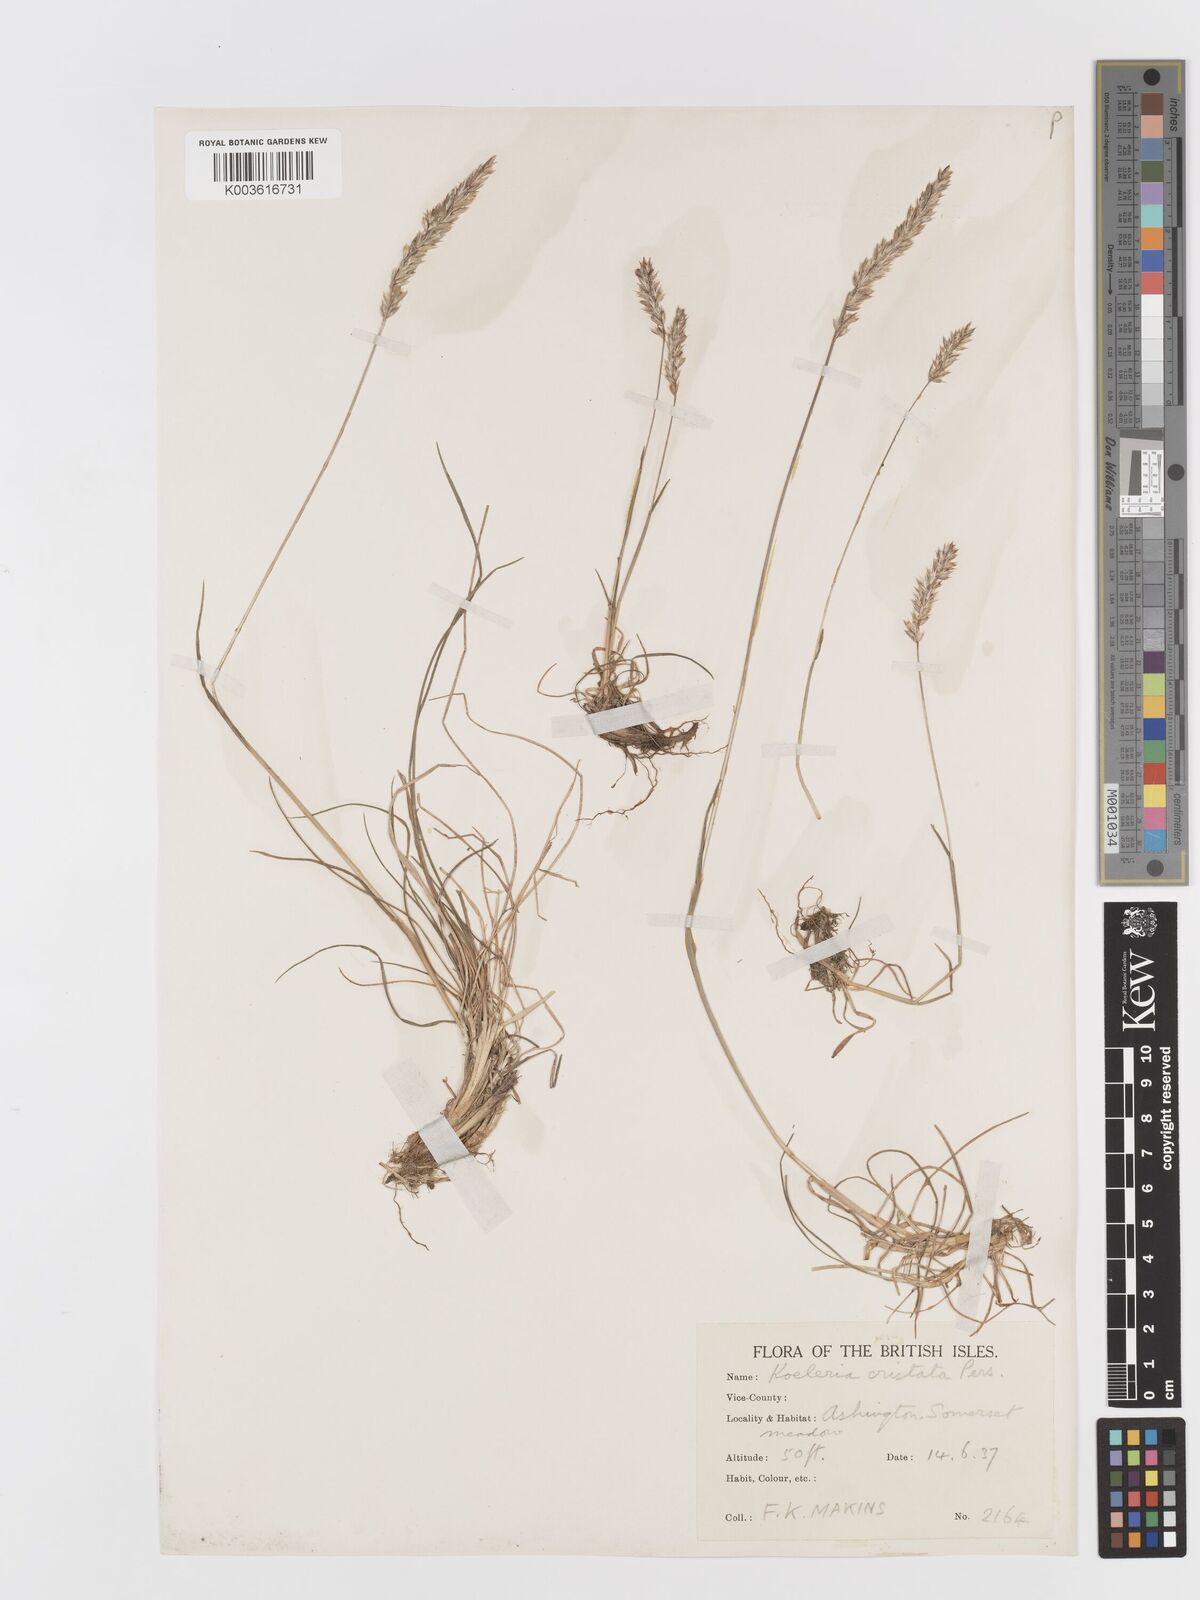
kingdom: Plantae
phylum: Tracheophyta
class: Liliopsida
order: Poales
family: Poaceae
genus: Koeleria
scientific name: Koeleria
